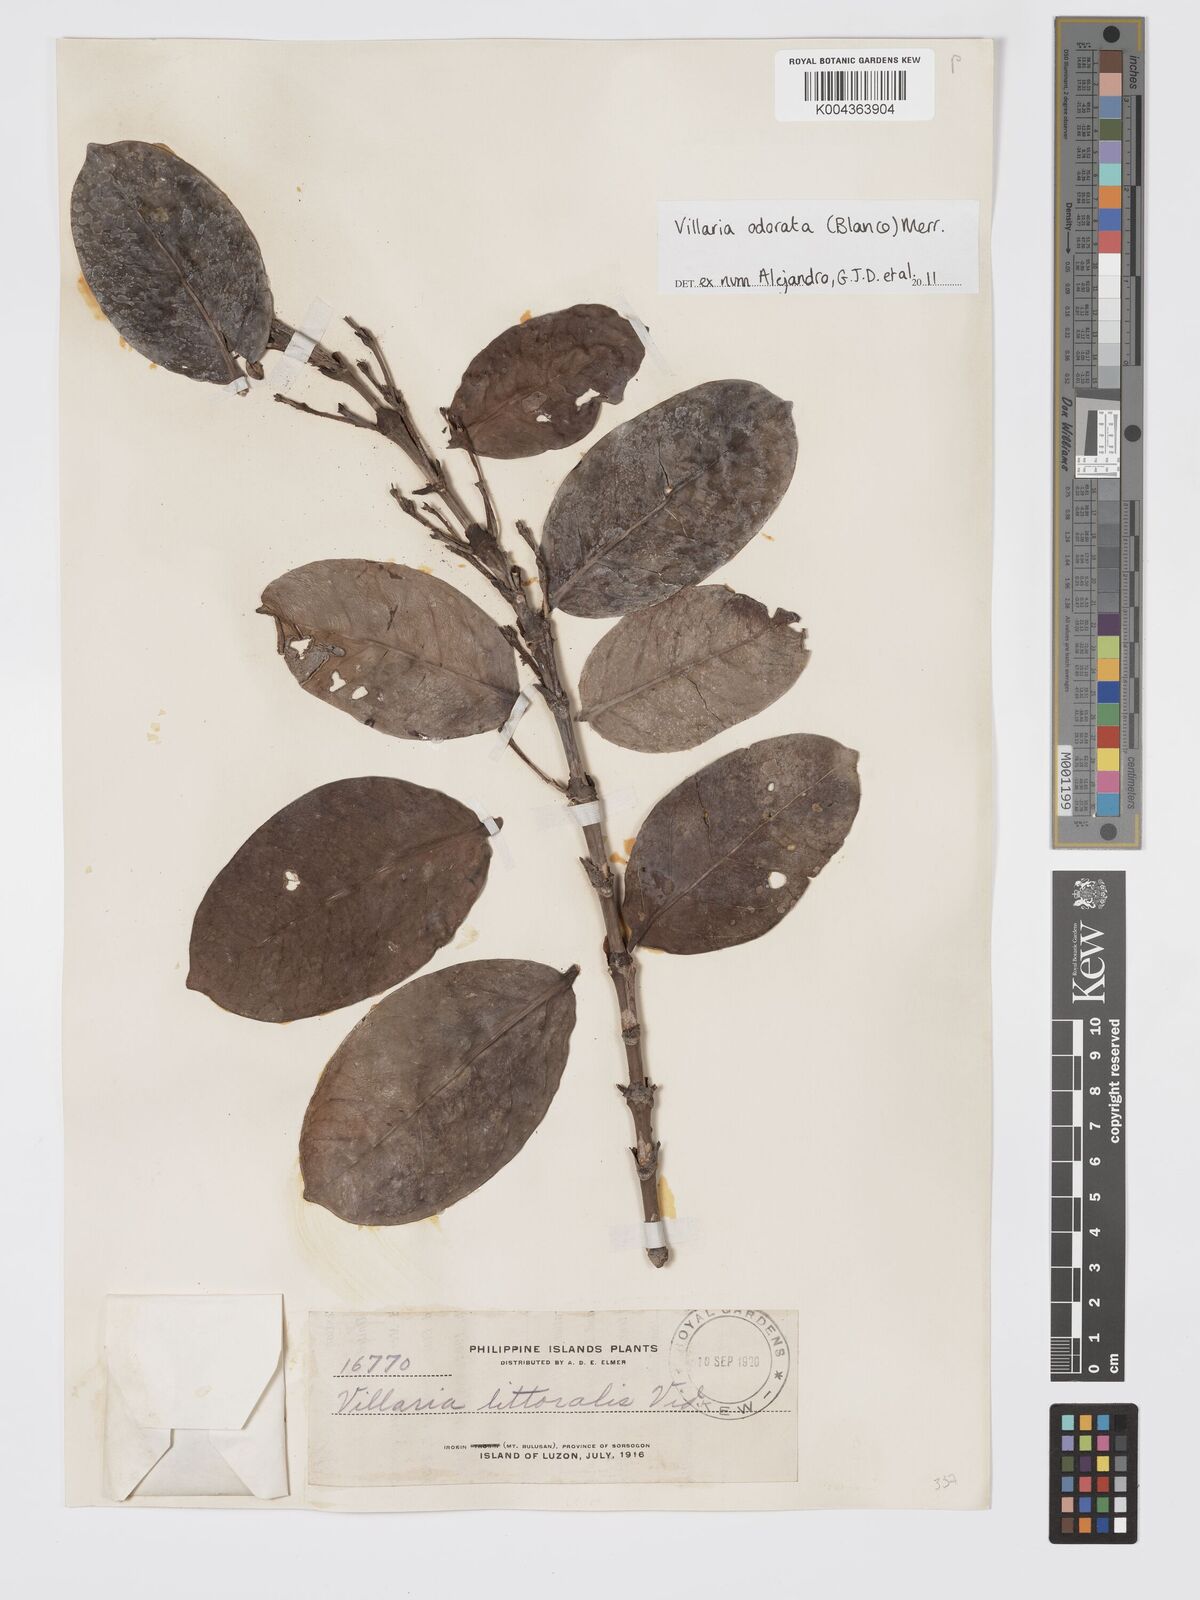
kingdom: Plantae
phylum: Tracheophyta
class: Magnoliopsida
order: Gentianales
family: Rubiaceae
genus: Villaria
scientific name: Villaria odorata
